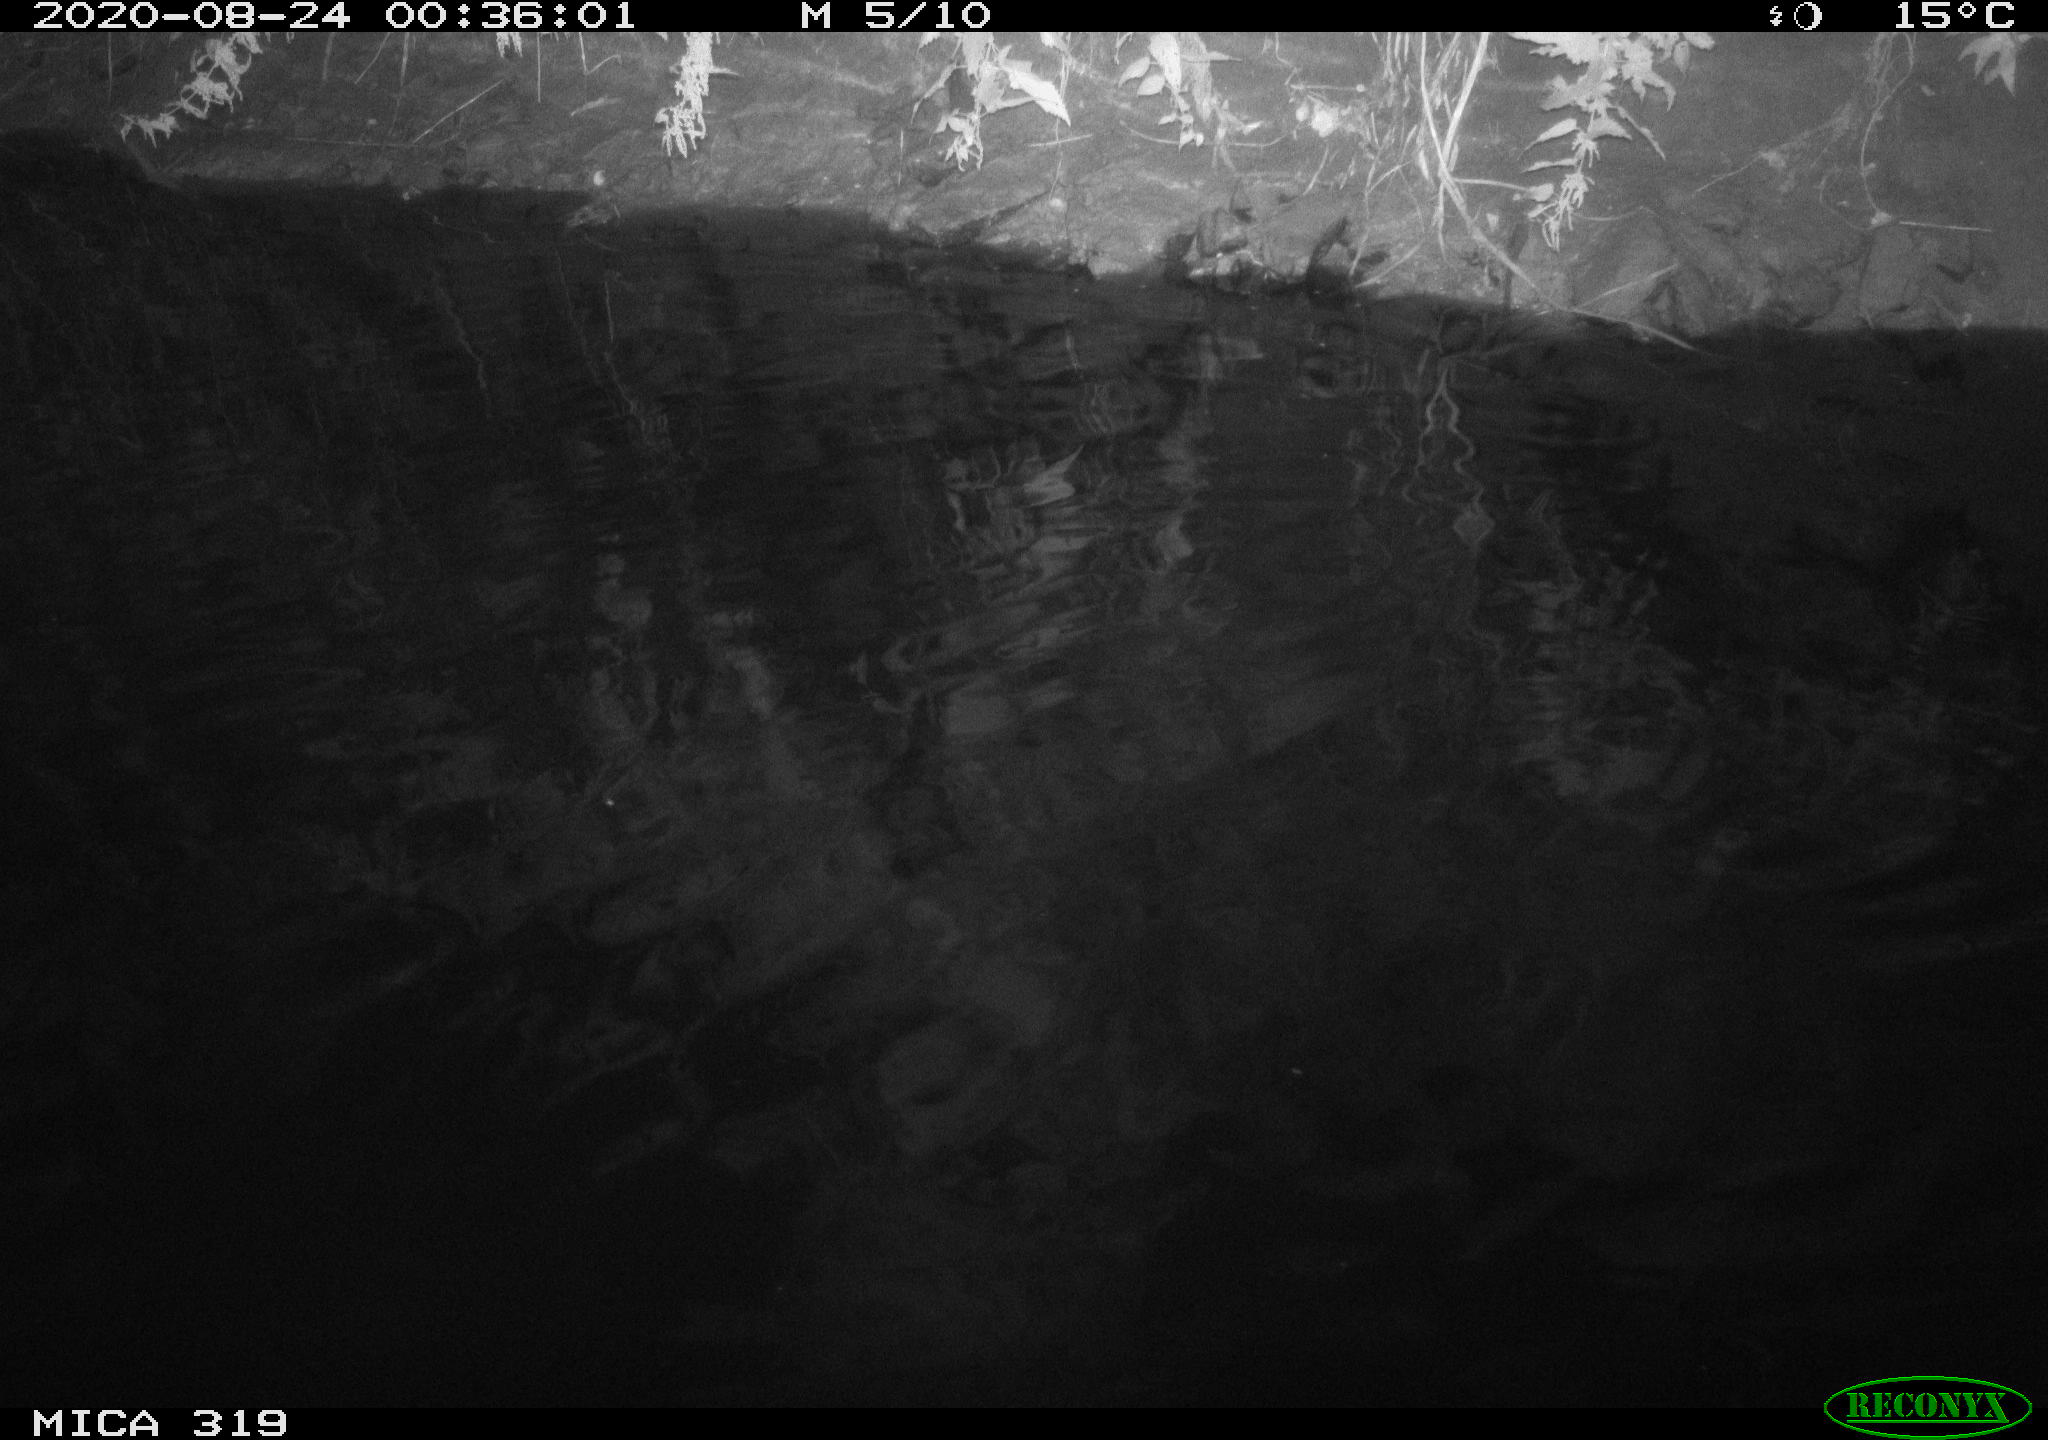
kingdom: Animalia
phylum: Chordata
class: Aves
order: Anseriformes
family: Anatidae
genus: Anas
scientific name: Anas platyrhynchos
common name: Mallard
